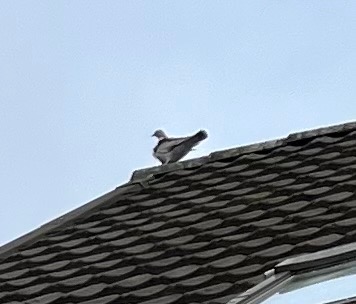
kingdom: Animalia
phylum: Chordata
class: Aves
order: Columbiformes
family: Columbidae
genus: Columba
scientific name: Columba palumbus
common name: Ringdue
